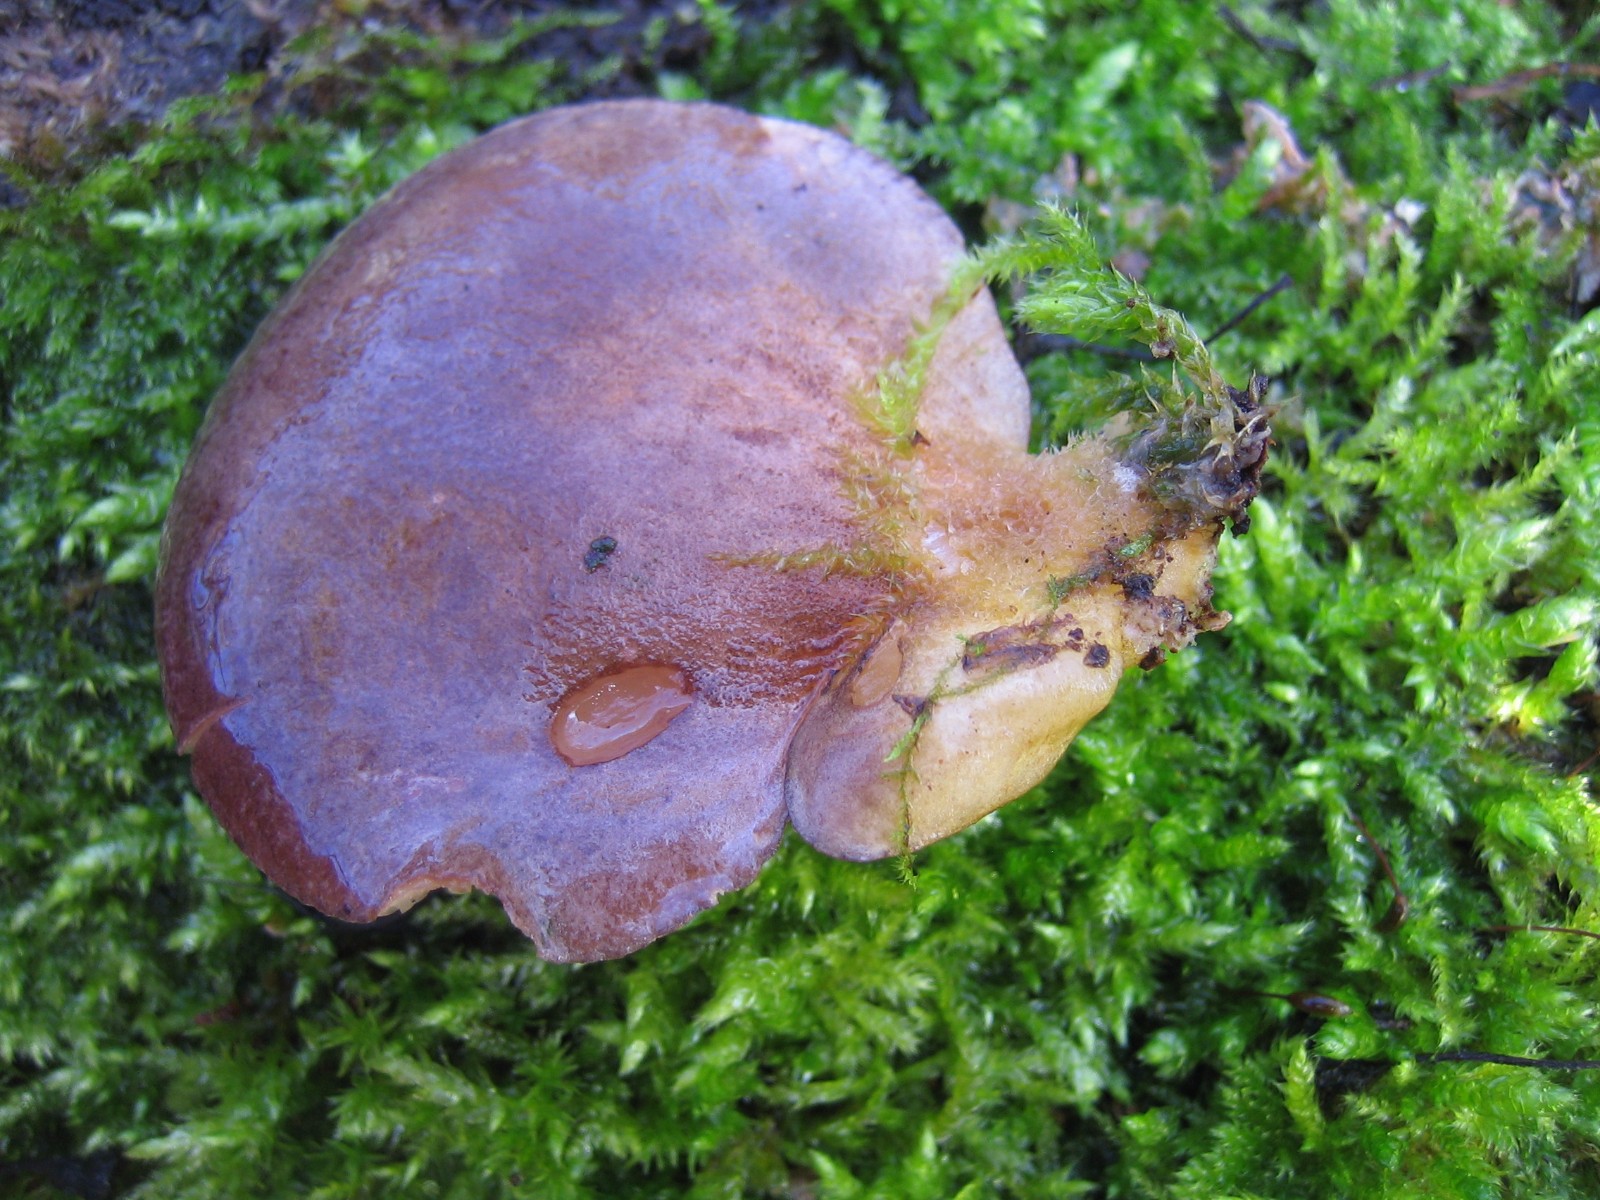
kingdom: Fungi
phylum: Basidiomycota
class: Agaricomycetes
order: Agaricales
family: Sarcomyxaceae
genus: Sarcomyxa
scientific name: Sarcomyxa serotina
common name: gummihat
